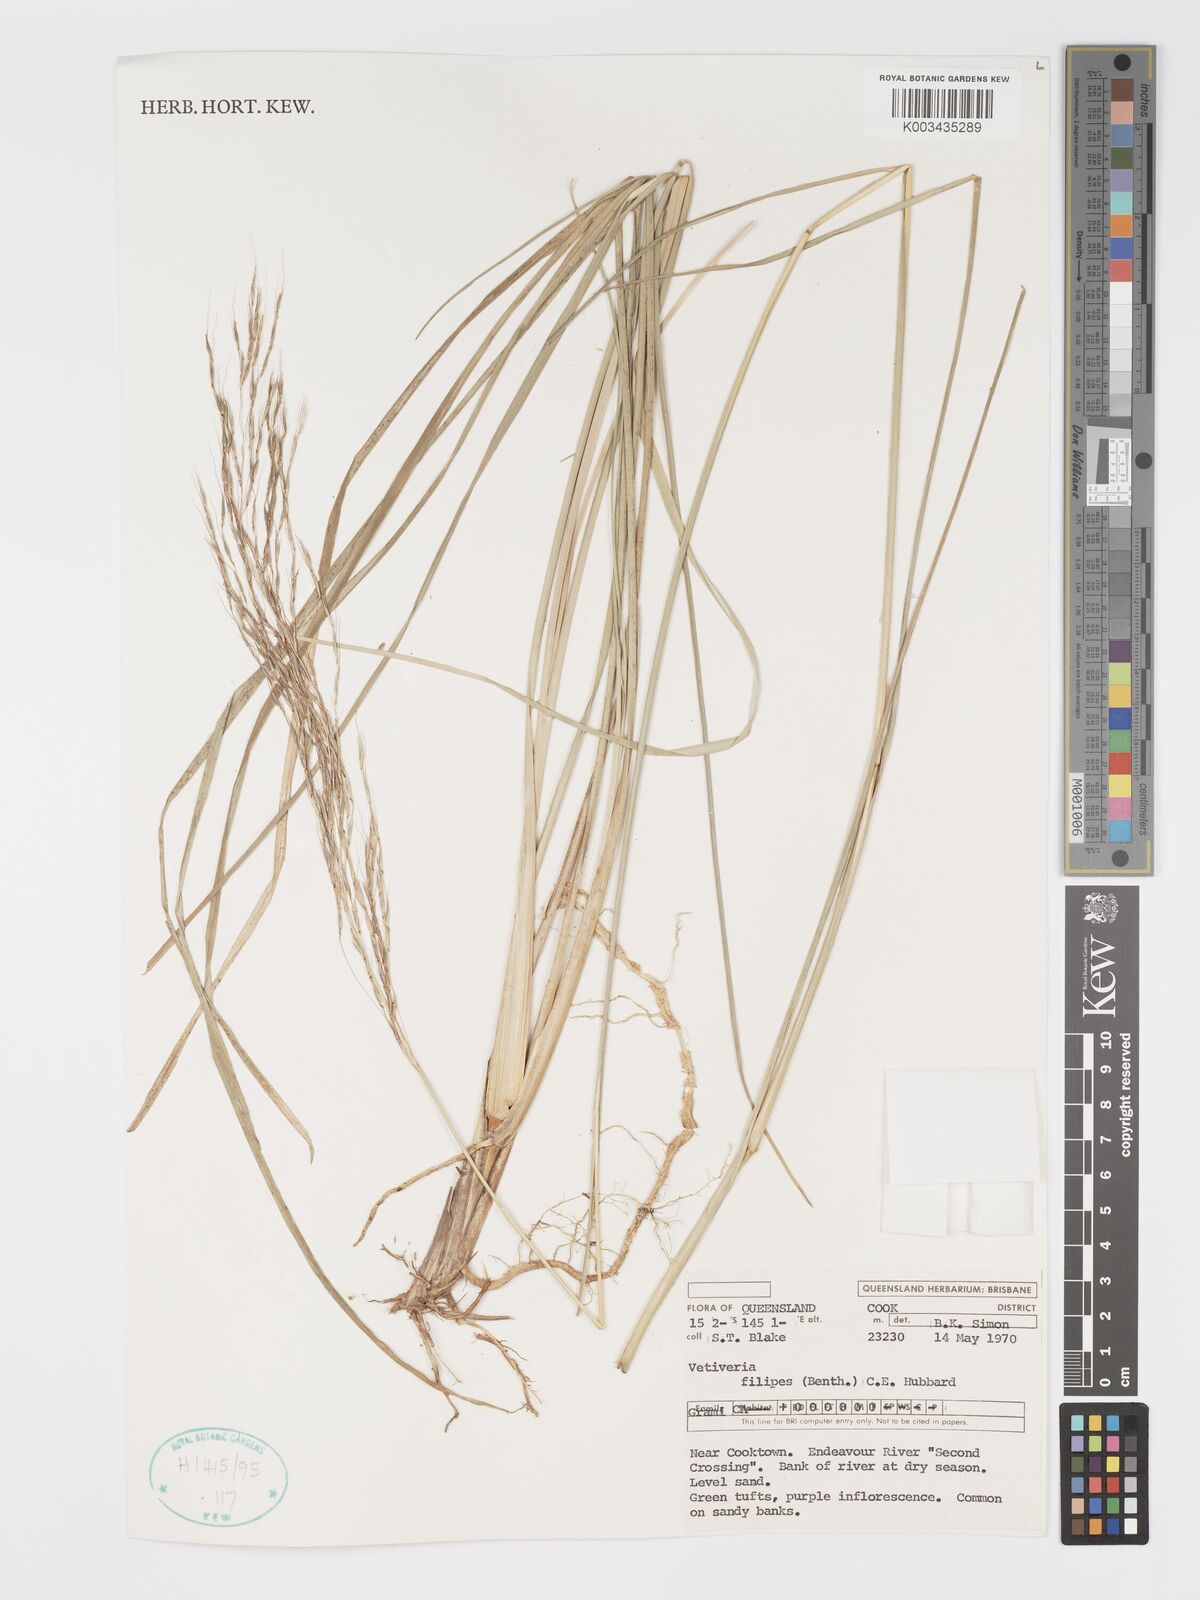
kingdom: Plantae
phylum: Tracheophyta
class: Liliopsida
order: Poales
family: Poaceae
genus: Chrysopogon
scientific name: Chrysopogon filipes
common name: Australian vetiver
